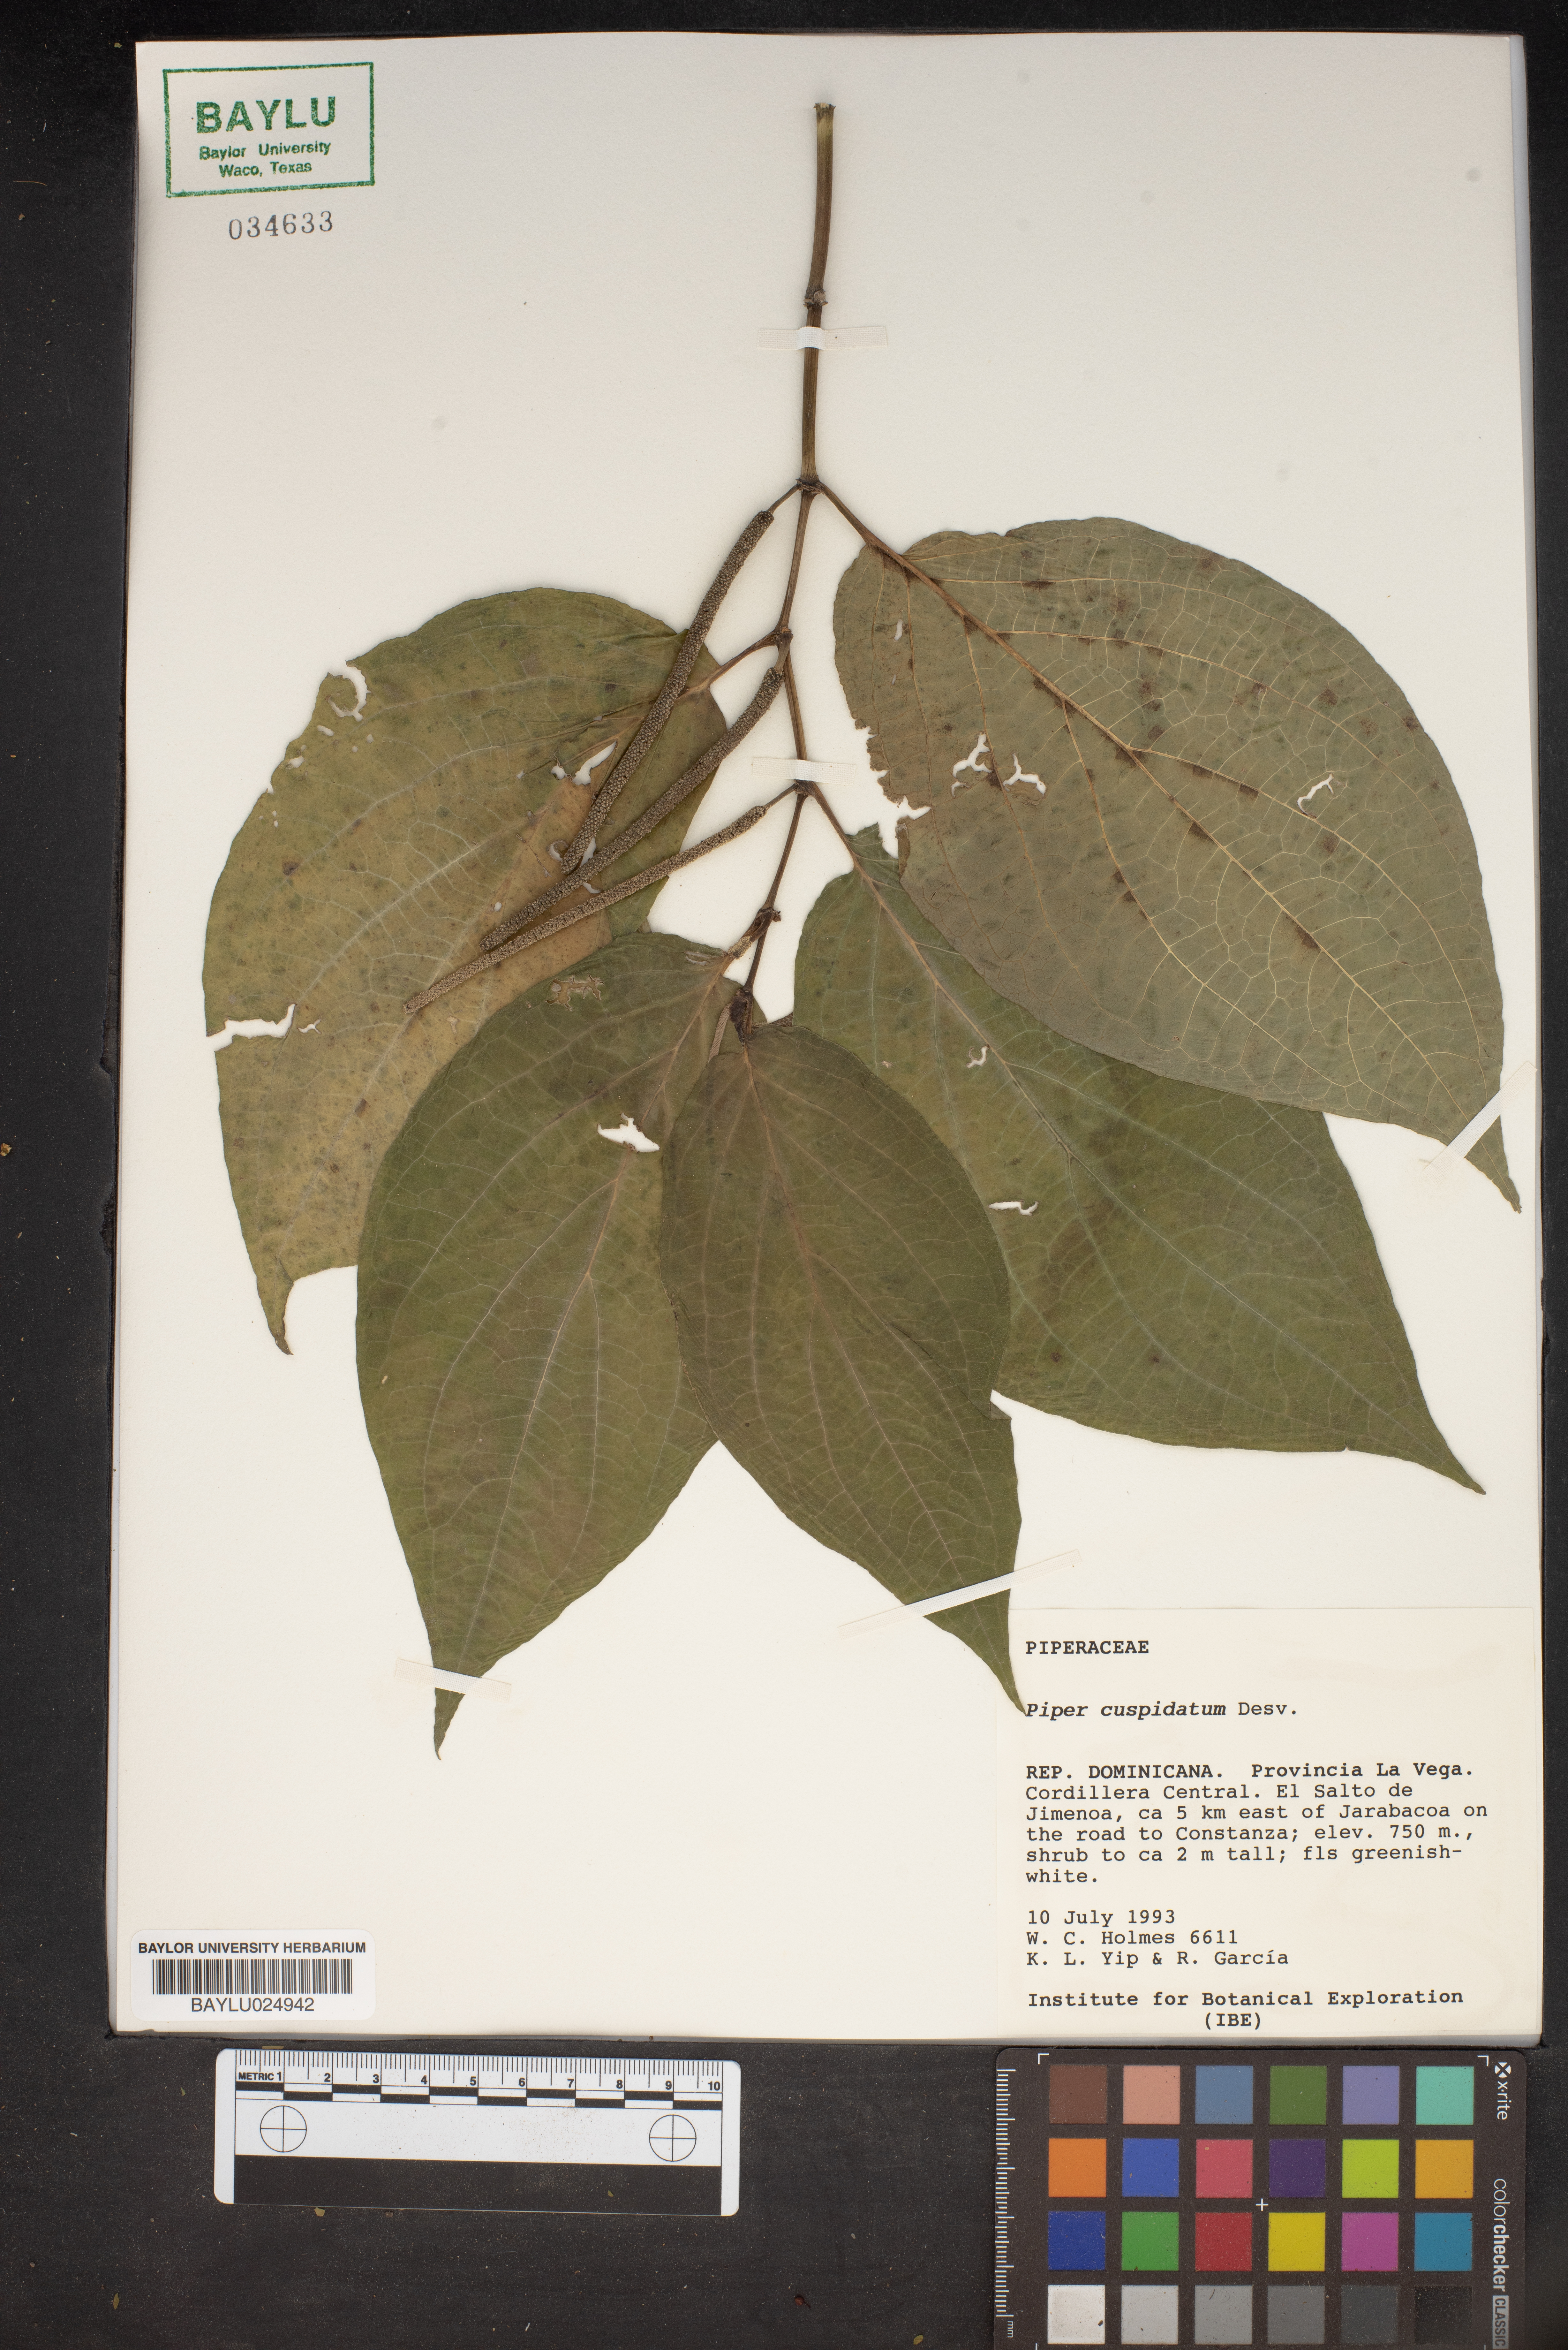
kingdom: Plantae
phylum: Tracheophyta
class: Magnoliopsida
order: Piperales
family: Piperaceae
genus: Piper
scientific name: Piper cuspidatum
